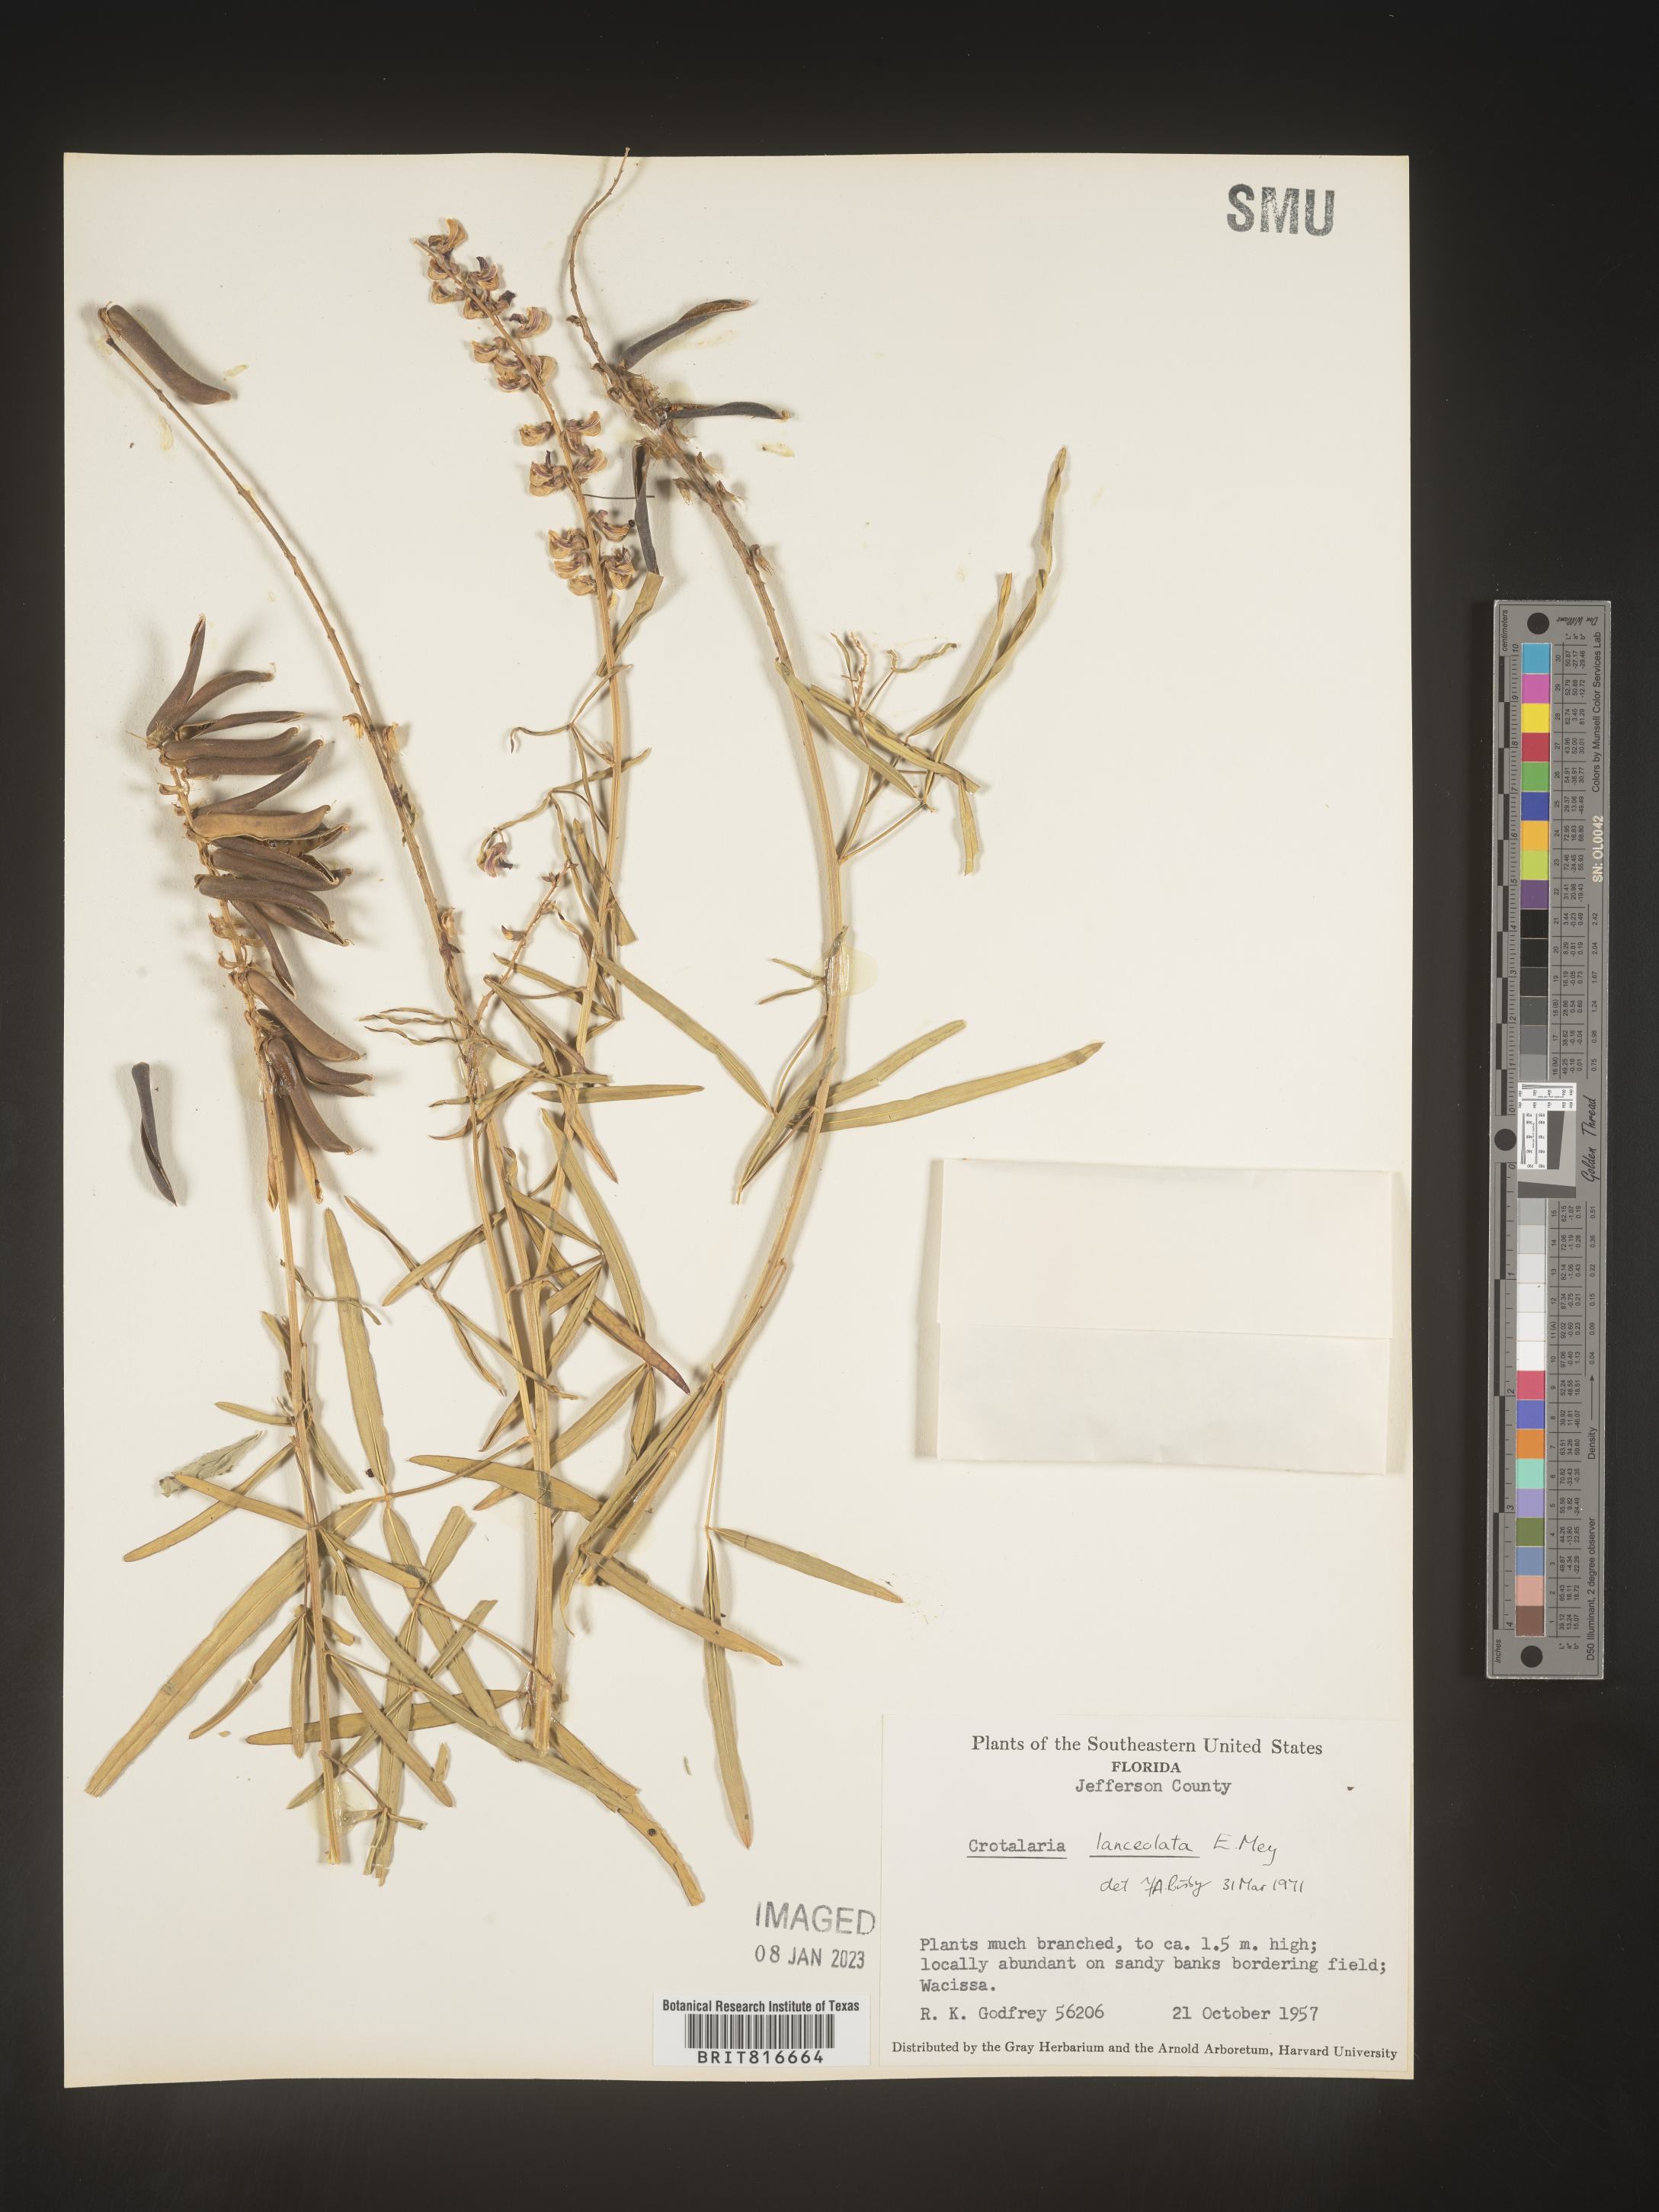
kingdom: Plantae
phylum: Tracheophyta
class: Magnoliopsida
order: Fabales
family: Fabaceae
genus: Crotalaria
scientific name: Crotalaria
